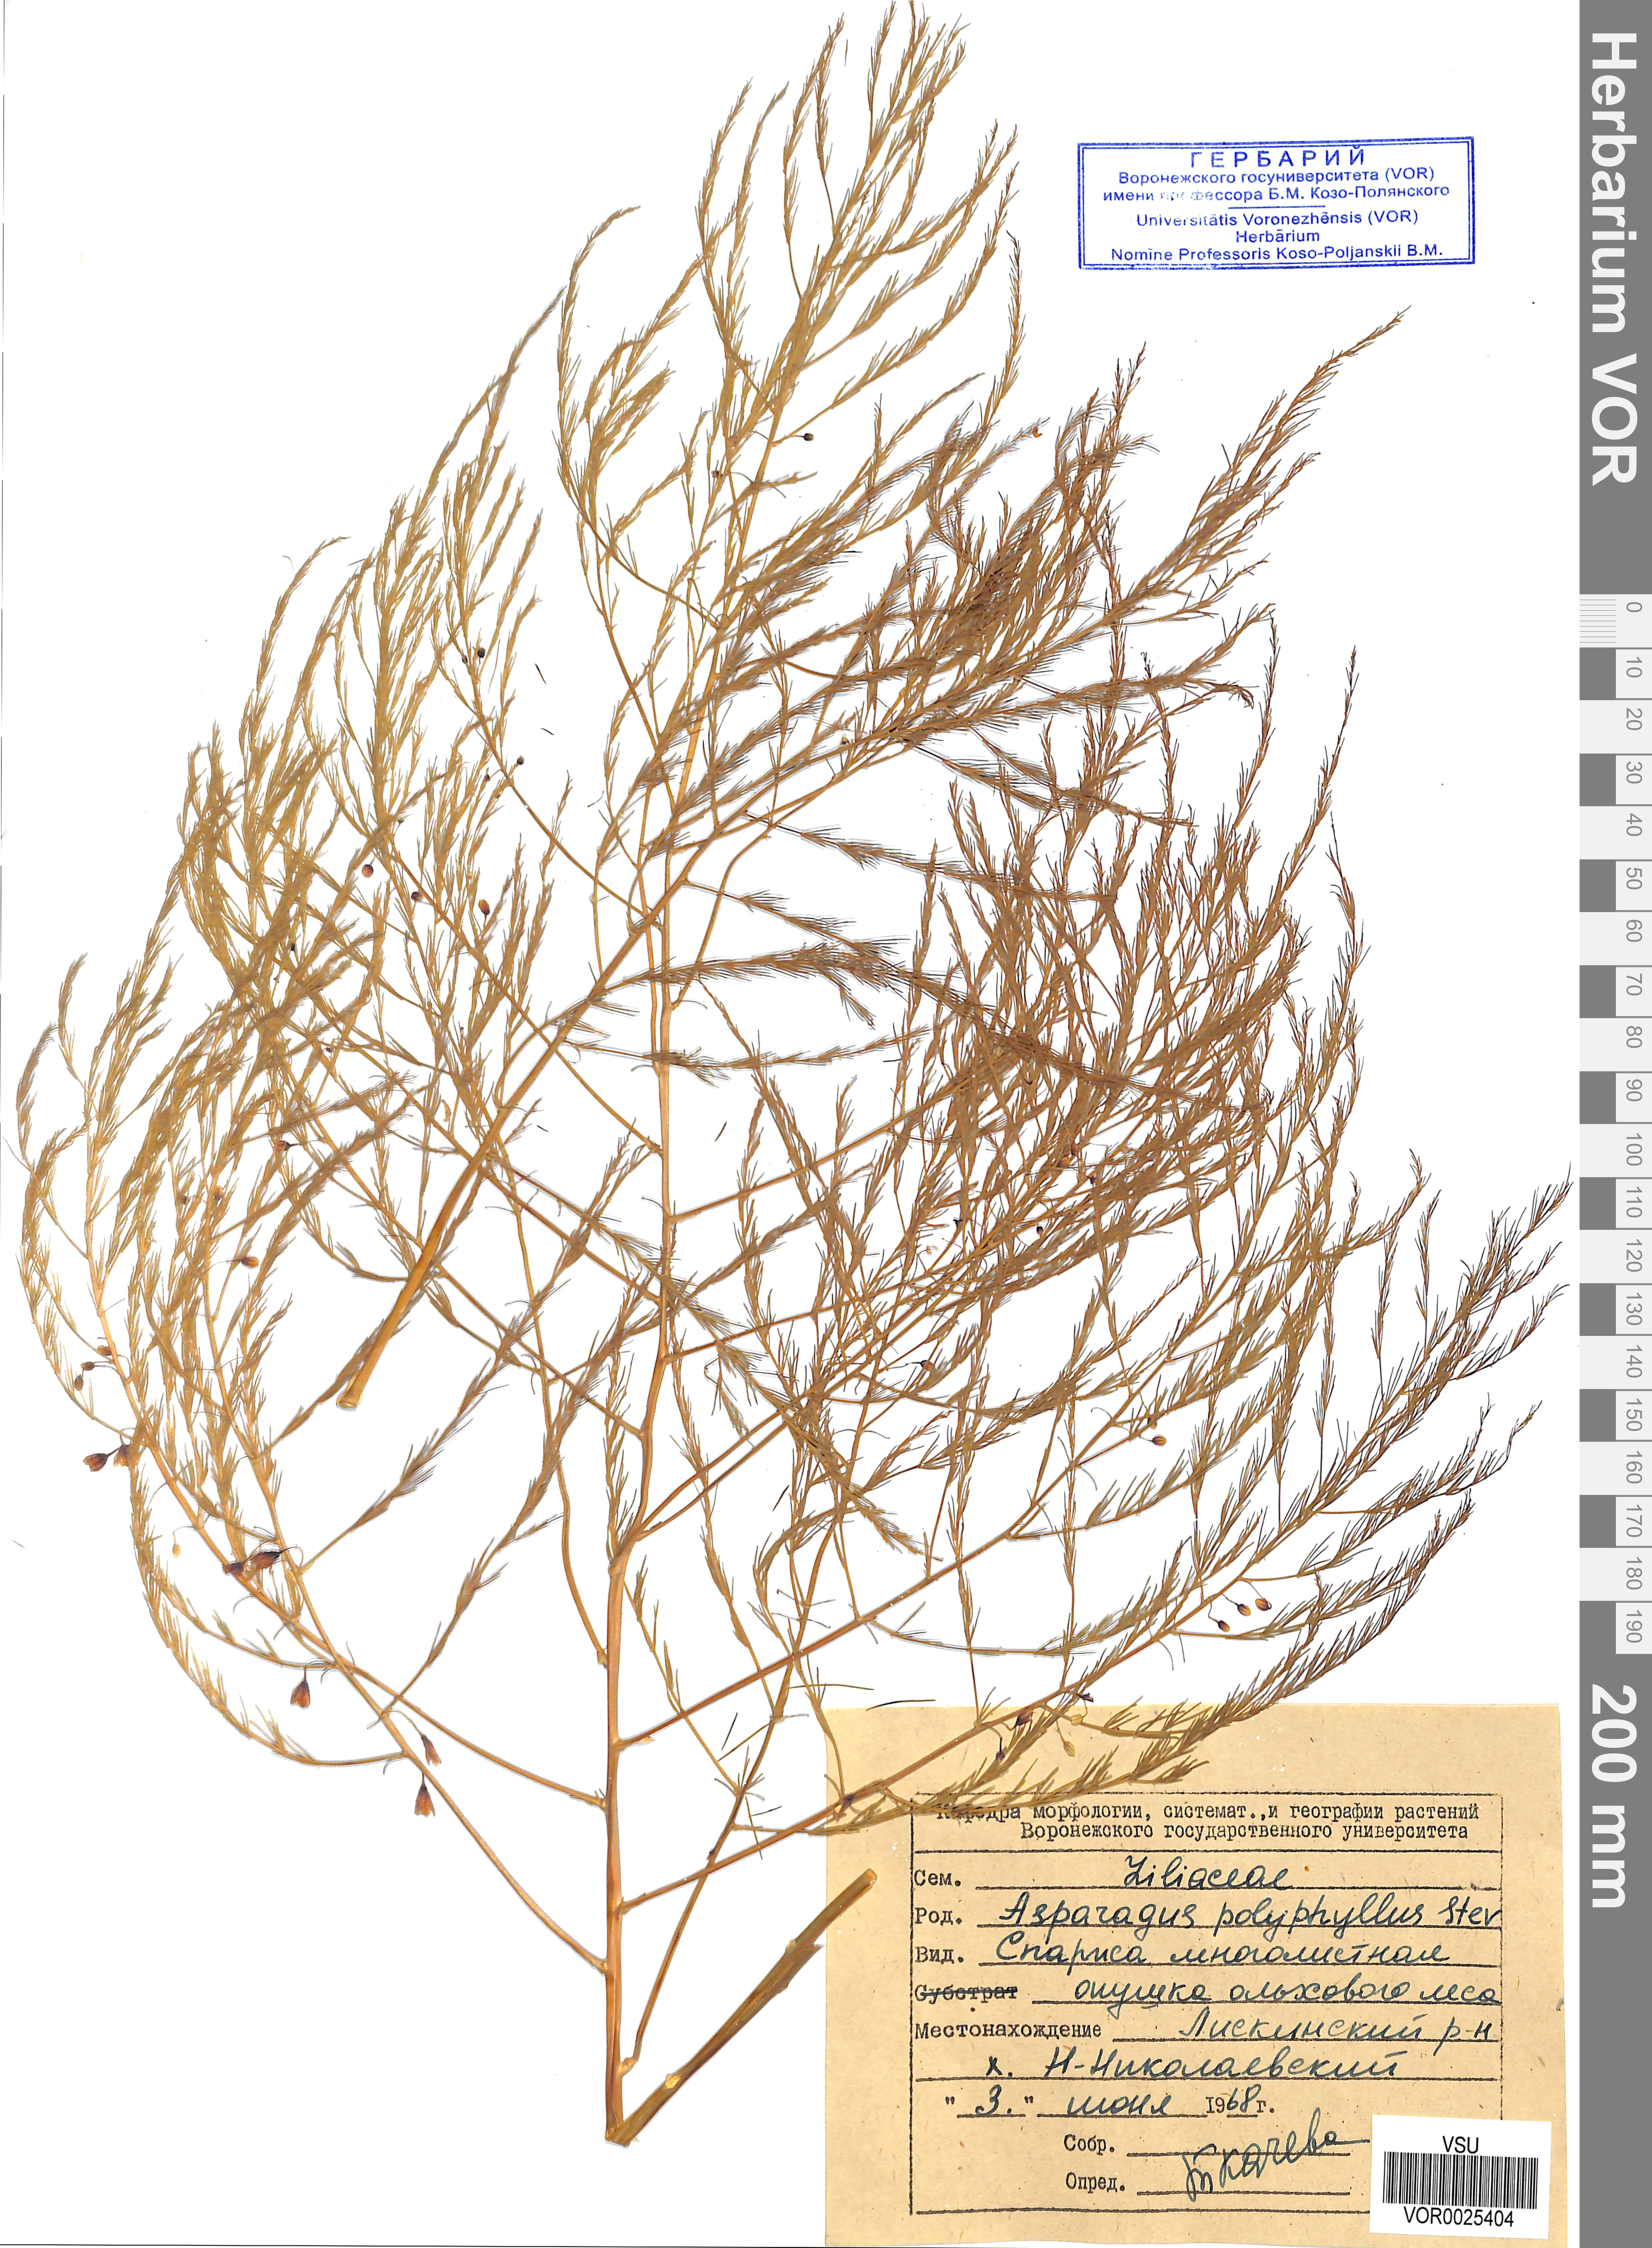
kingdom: Plantae
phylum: Tracheophyta
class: Liliopsida
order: Asparagales
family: Asparagaceae
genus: Asparagus
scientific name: Asparagus officinalis
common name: Garden asparagus
